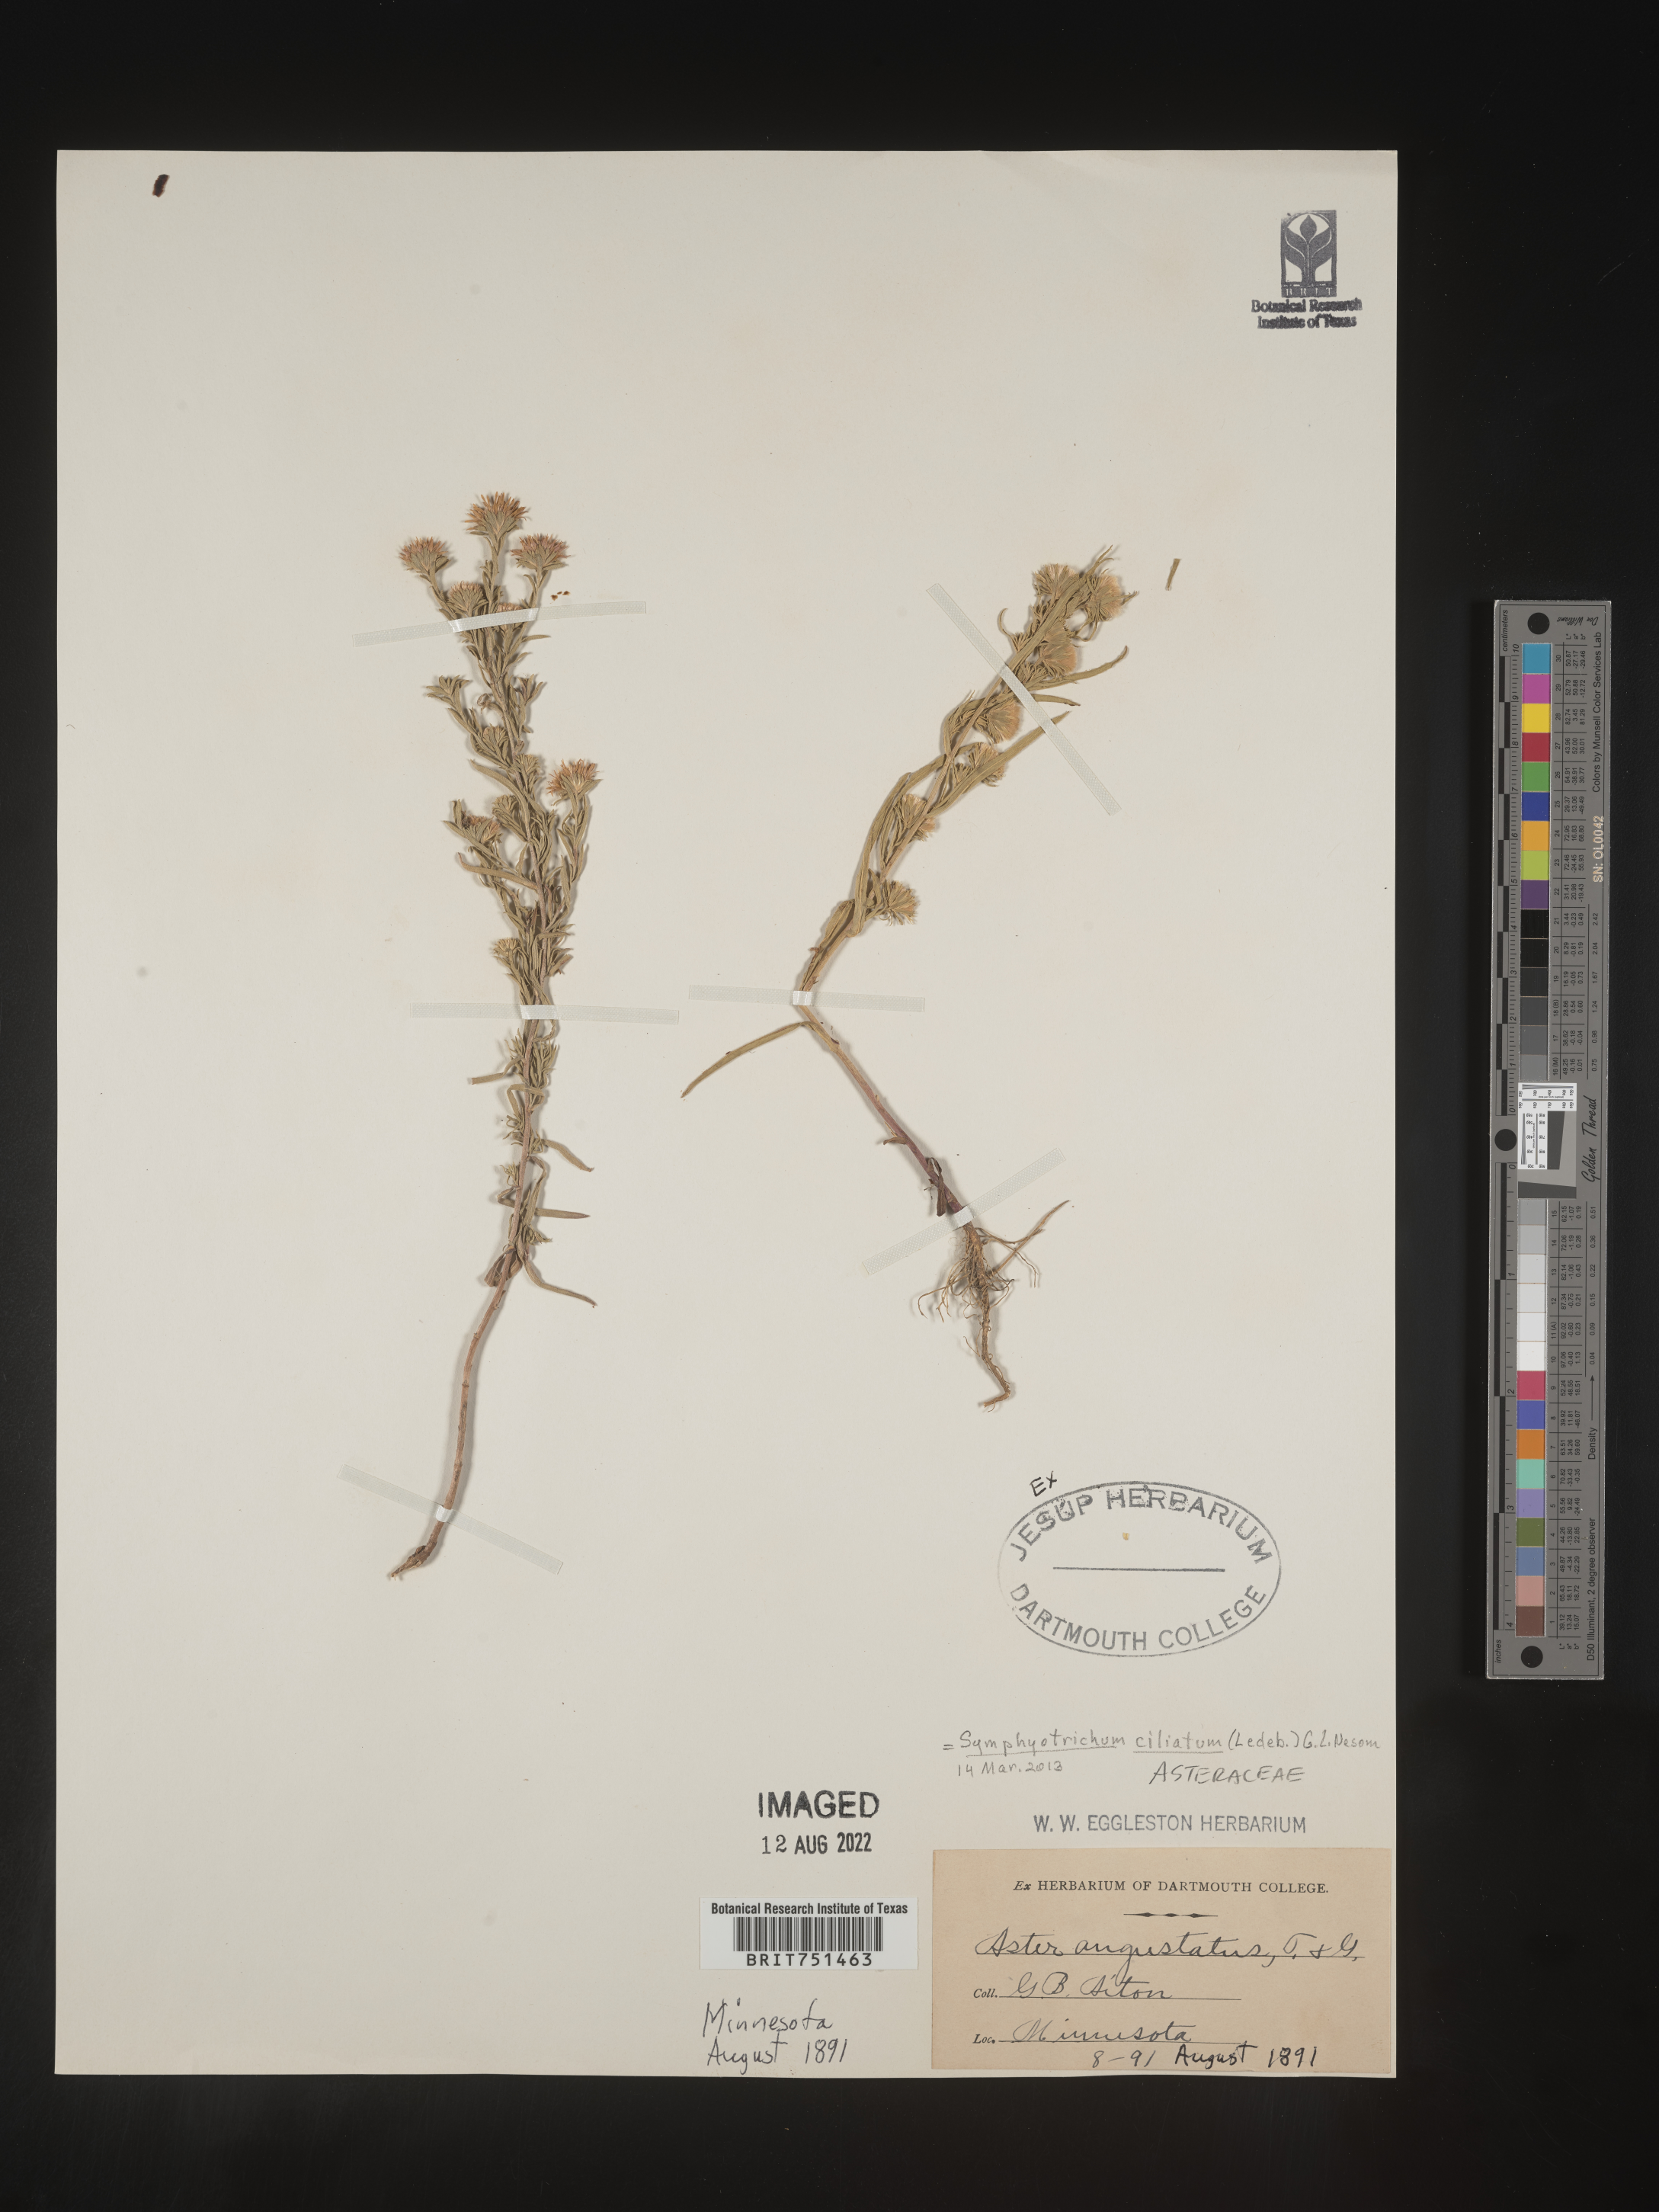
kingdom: Plantae
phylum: Tracheophyta
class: Magnoliopsida
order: Asterales
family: Asteraceae
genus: Symphyotrichum
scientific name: Symphyotrichum ciliolatum
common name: Fringed blue aster
